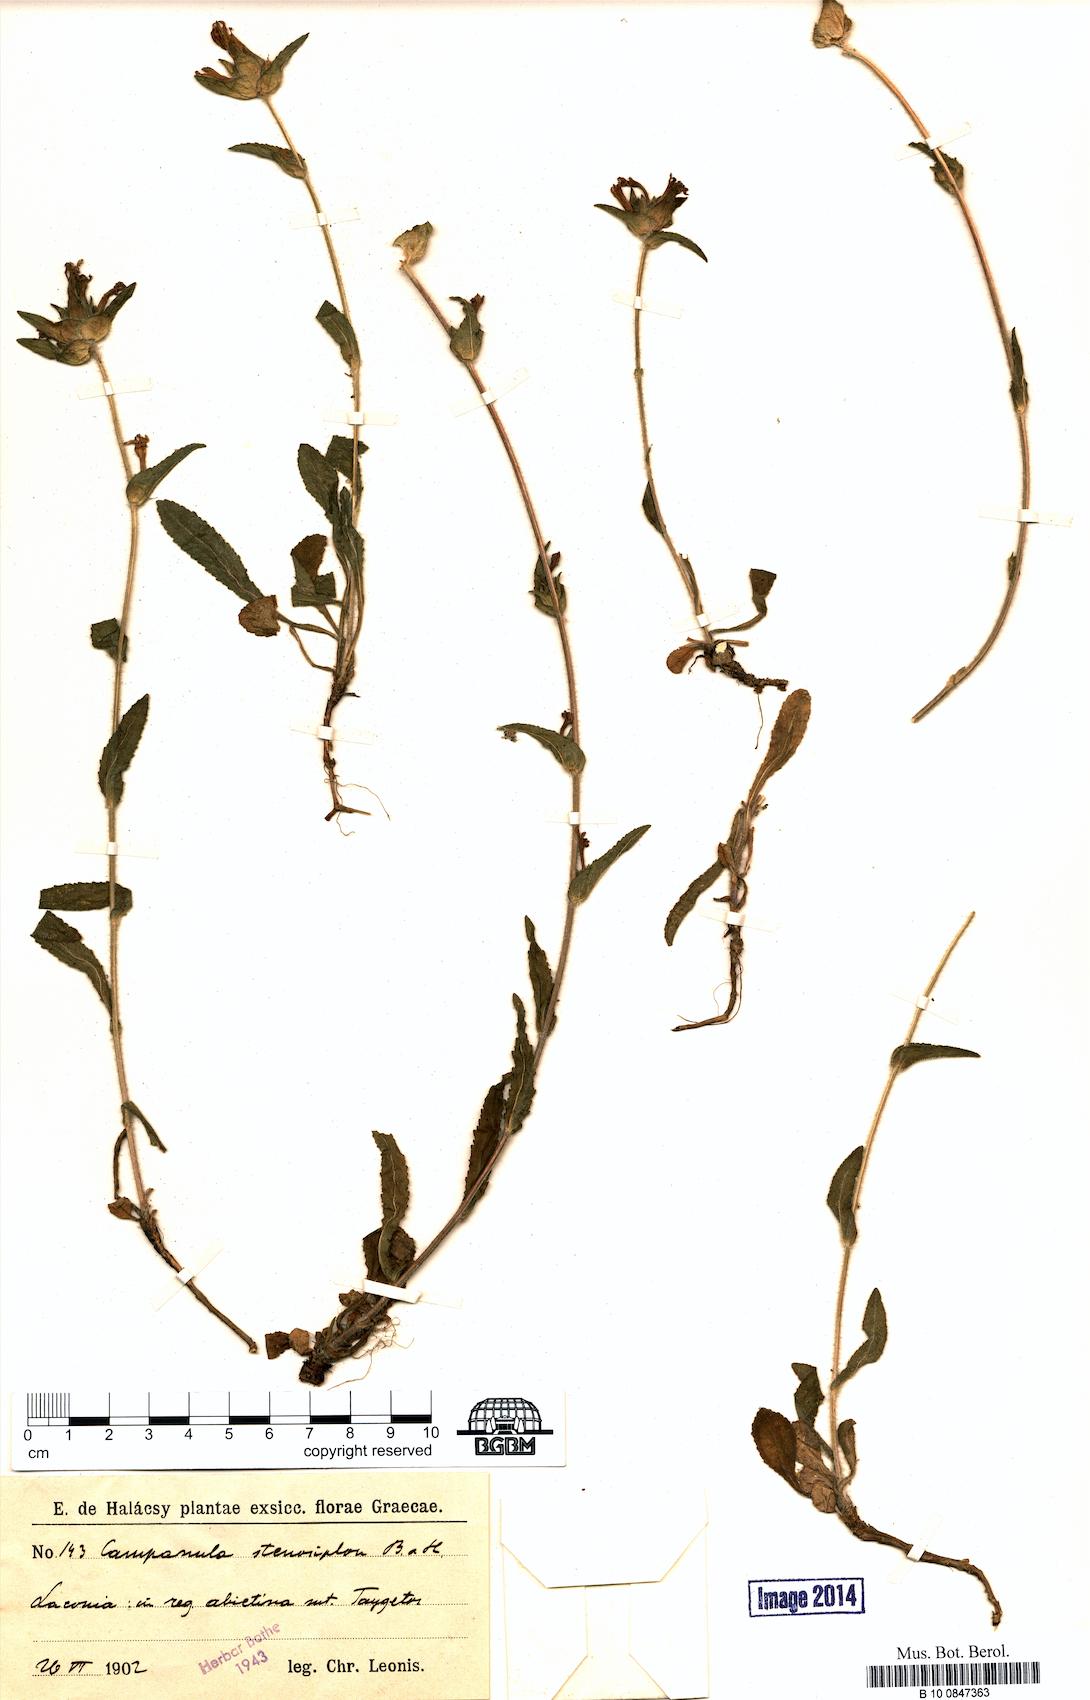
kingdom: Plantae
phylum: Tracheophyta
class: Magnoliopsida
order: Asterales
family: Campanulaceae
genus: Campanula
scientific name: Campanula stenosiphon
